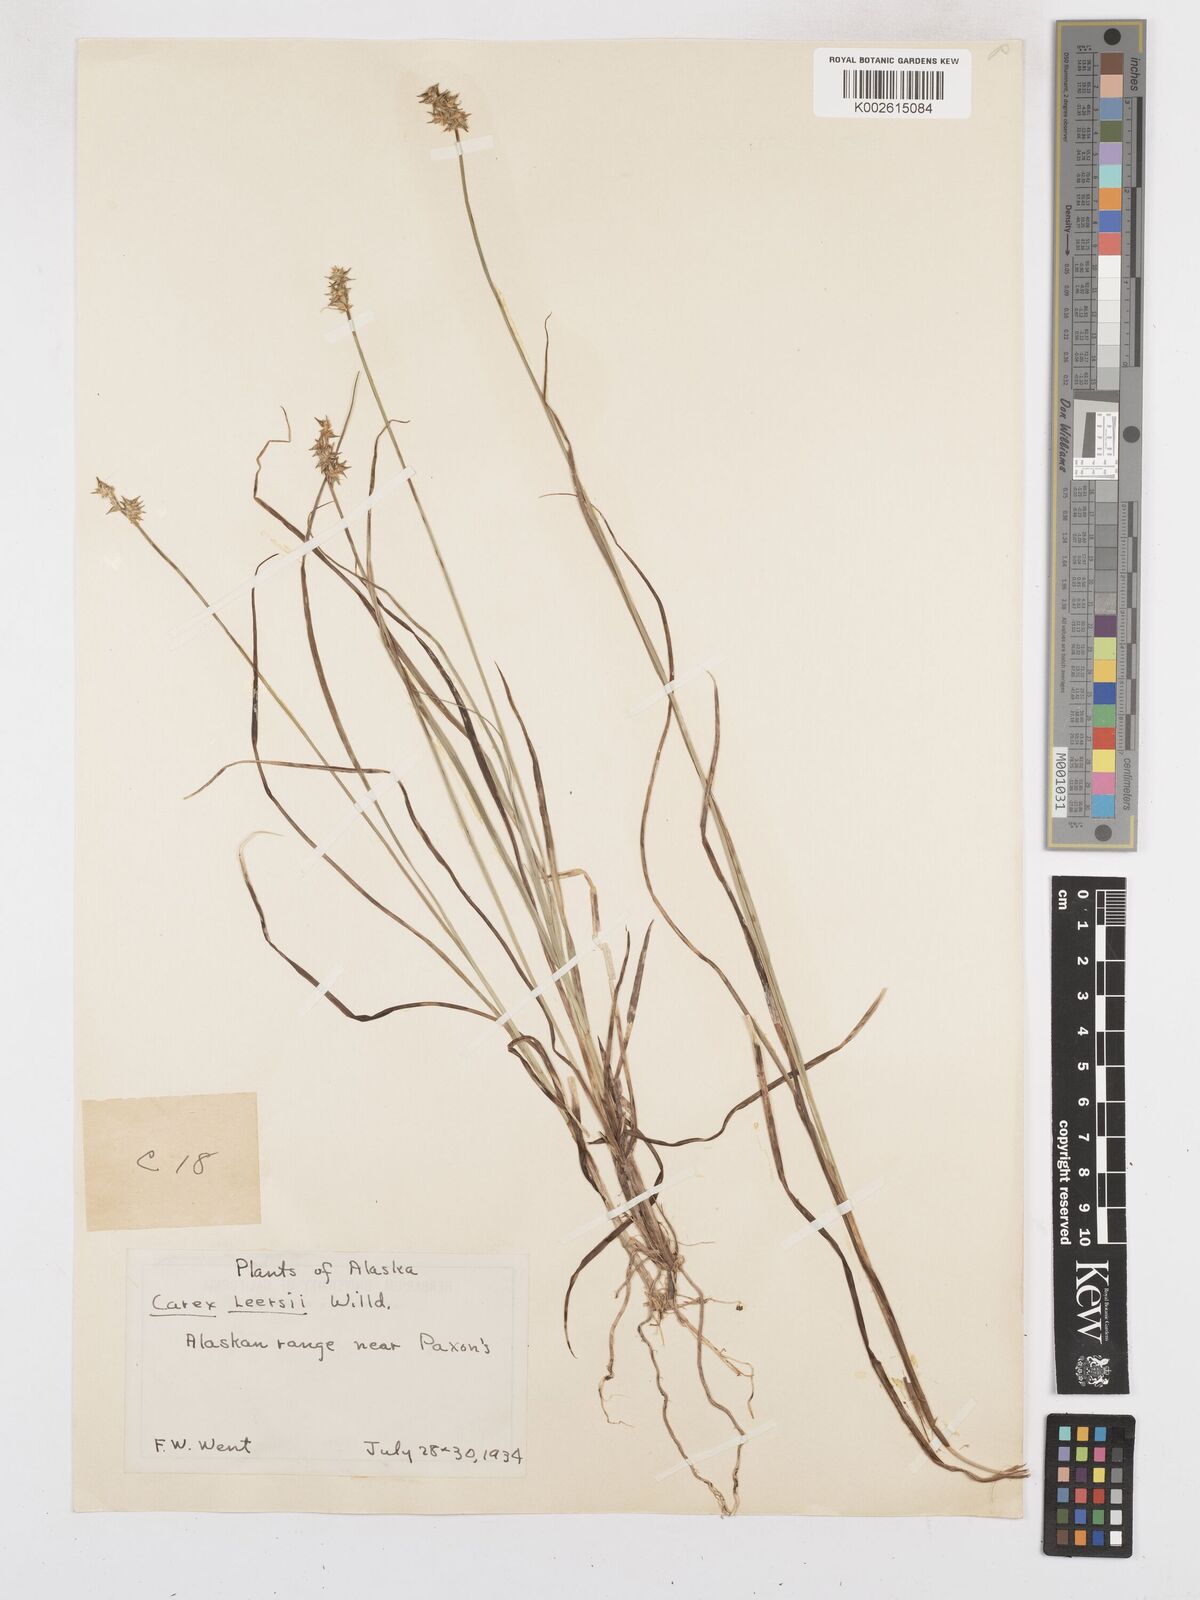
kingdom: Plantae
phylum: Tracheophyta
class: Liliopsida
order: Poales
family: Cyperaceae
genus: Carex
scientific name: Carex echinata
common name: Star sedge
